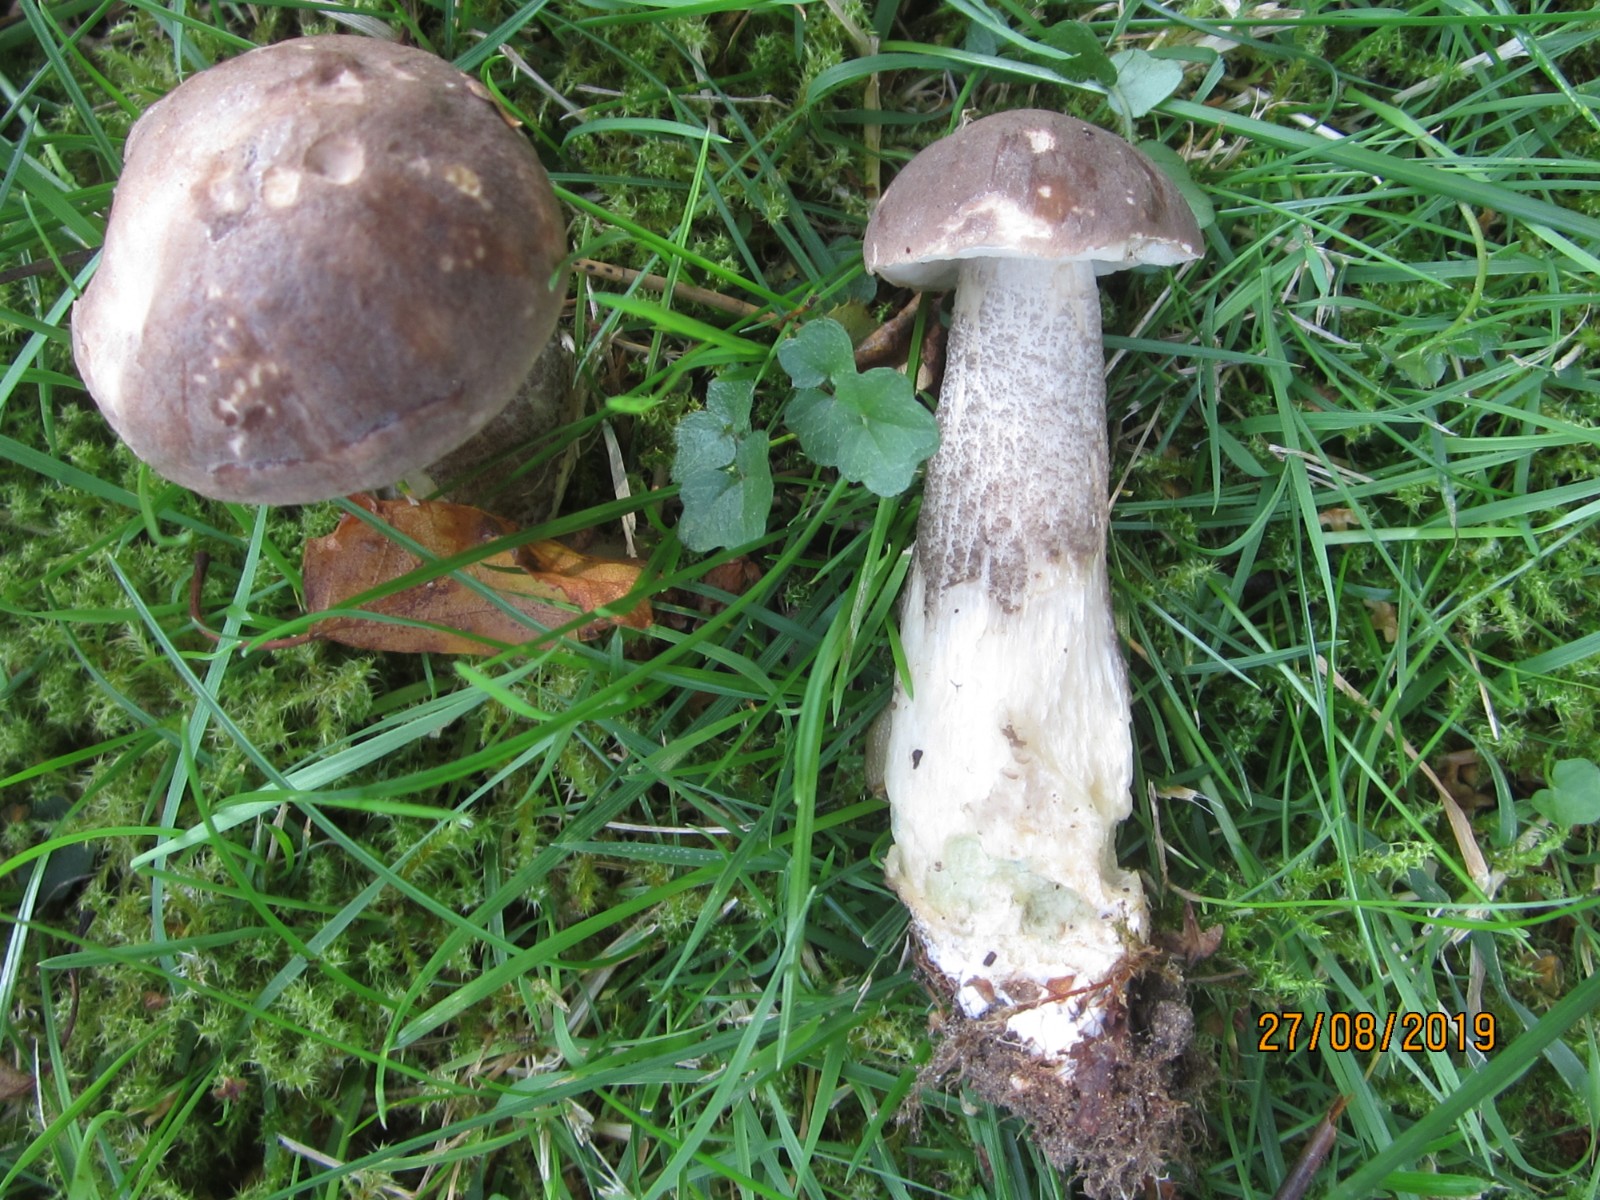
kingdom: Fungi
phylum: Basidiomycota
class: Agaricomycetes
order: Boletales
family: Boletaceae
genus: Leccinum
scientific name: Leccinum variicolor
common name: flammet skælrørhat
